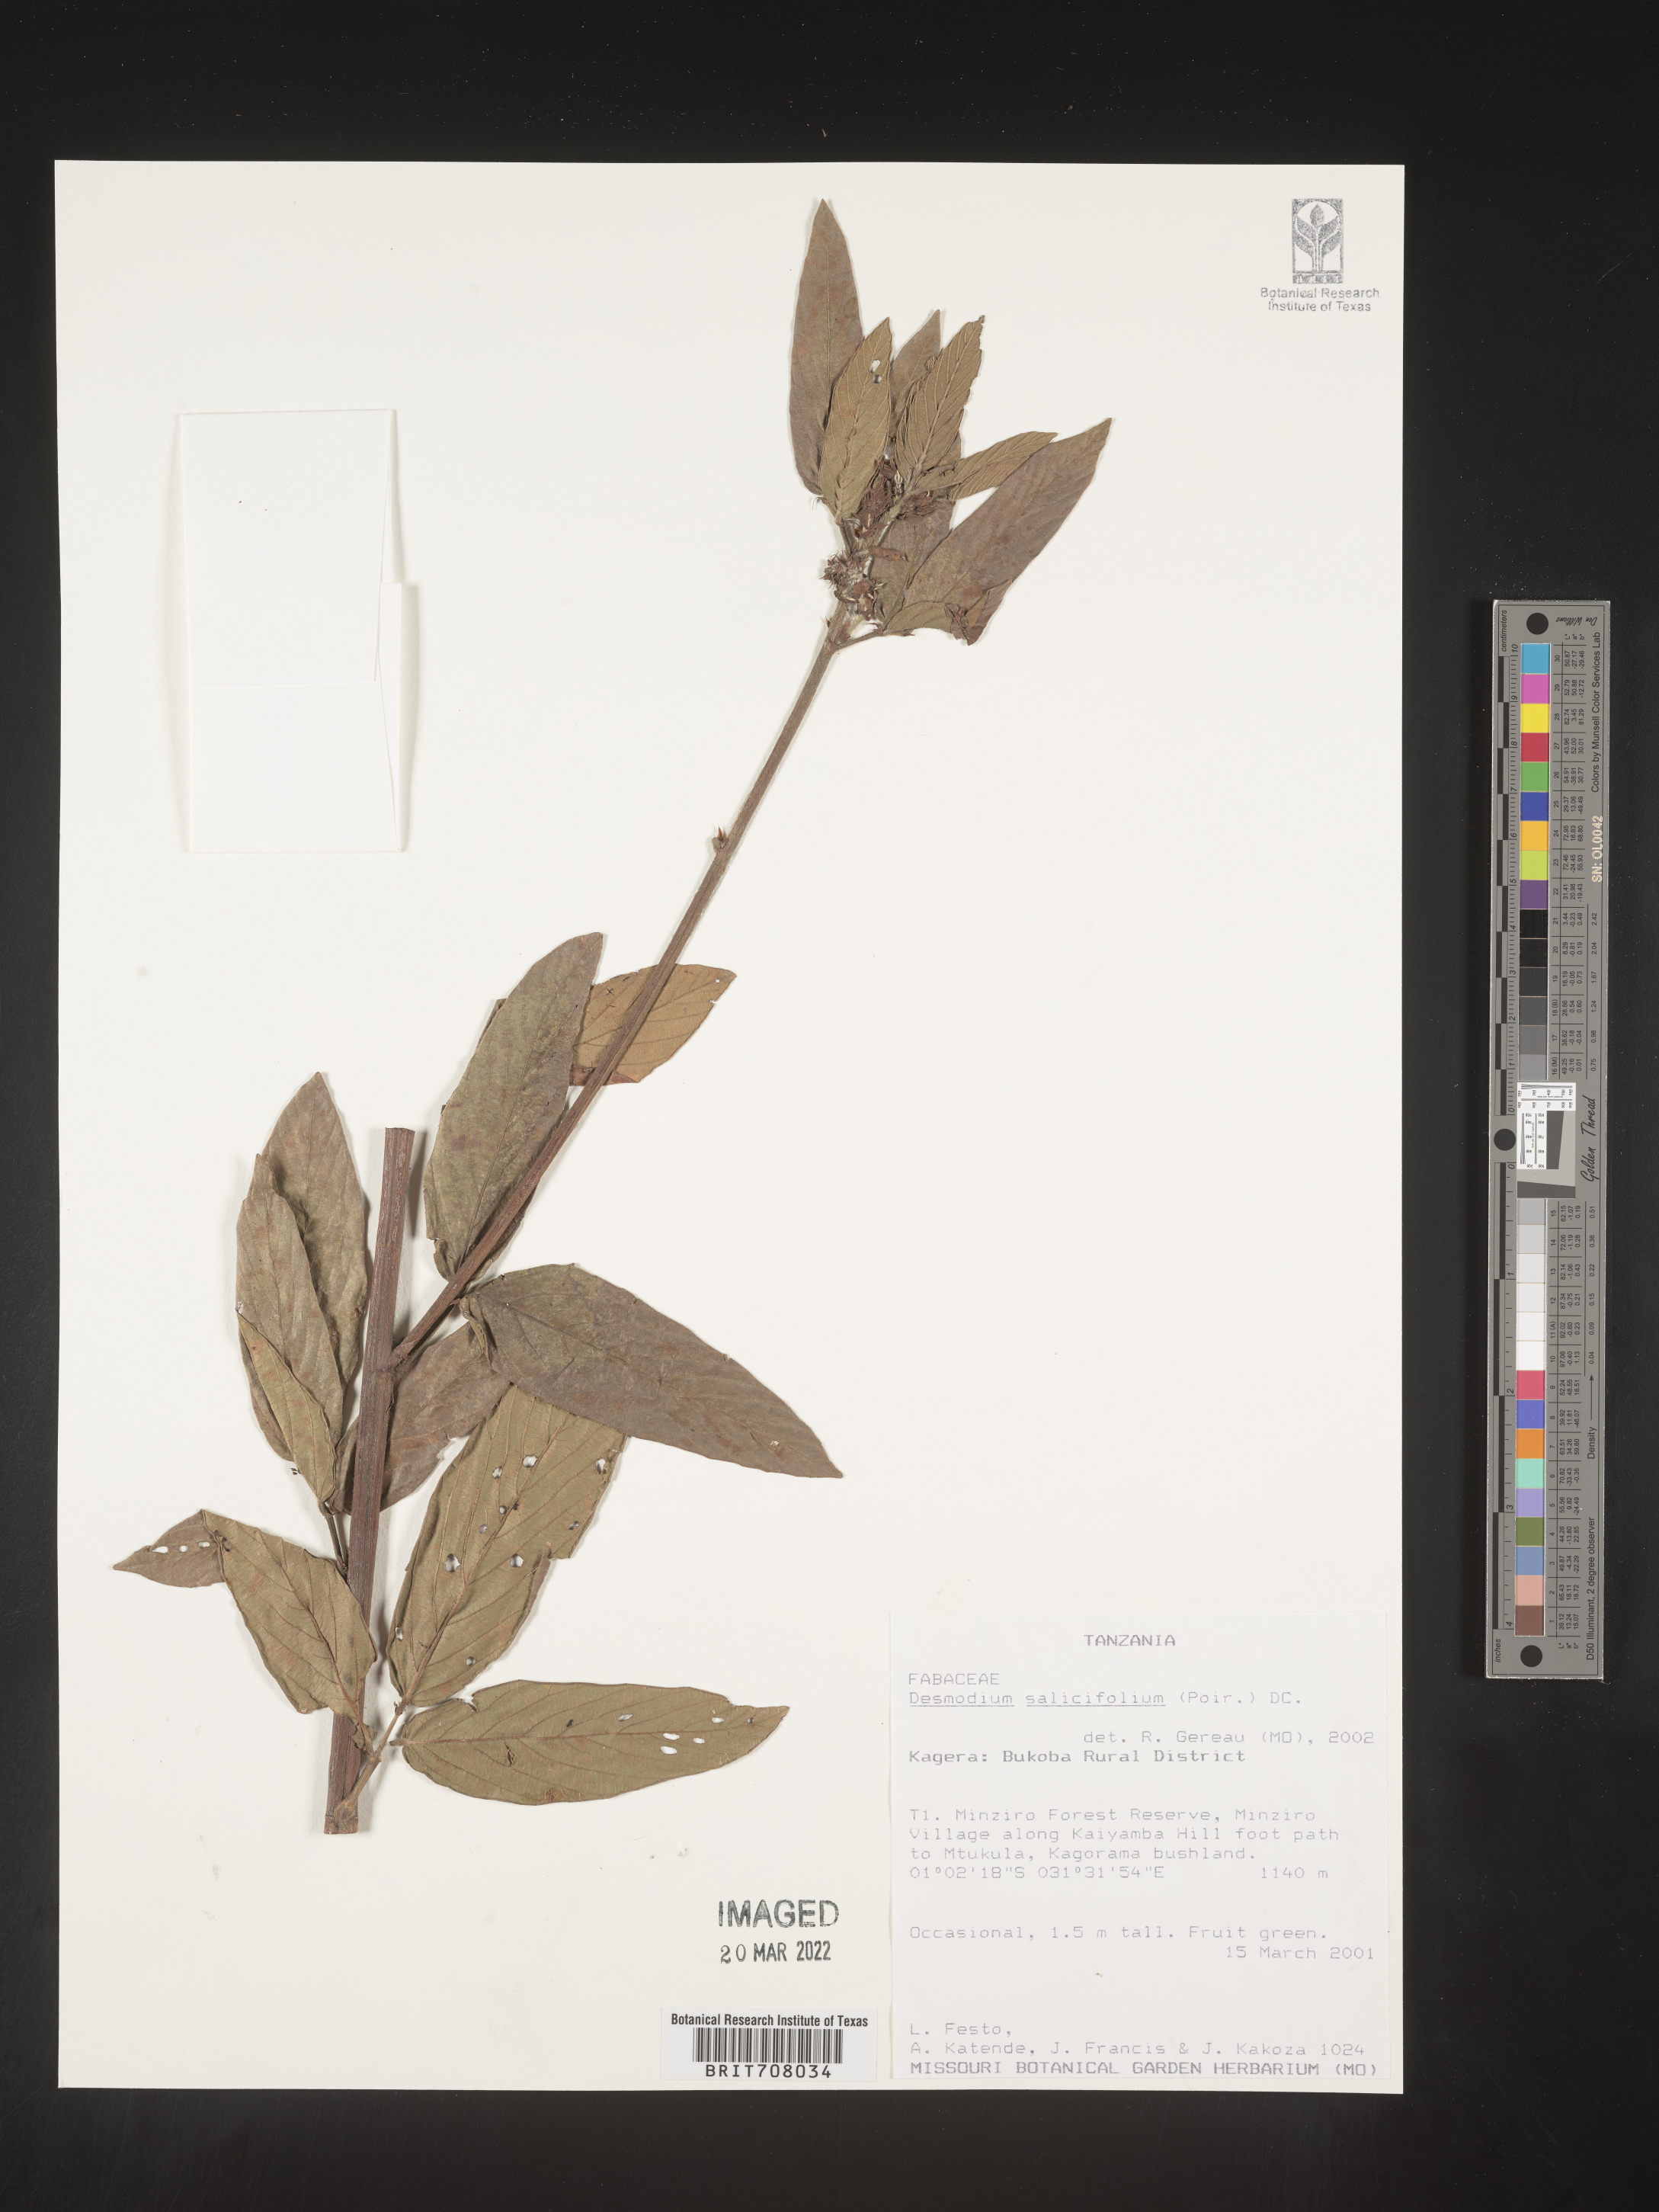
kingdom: Plantae
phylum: Tracheophyta
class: Magnoliopsida
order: Fabales
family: Fabaceae
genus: Desmodium
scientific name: Desmodium
